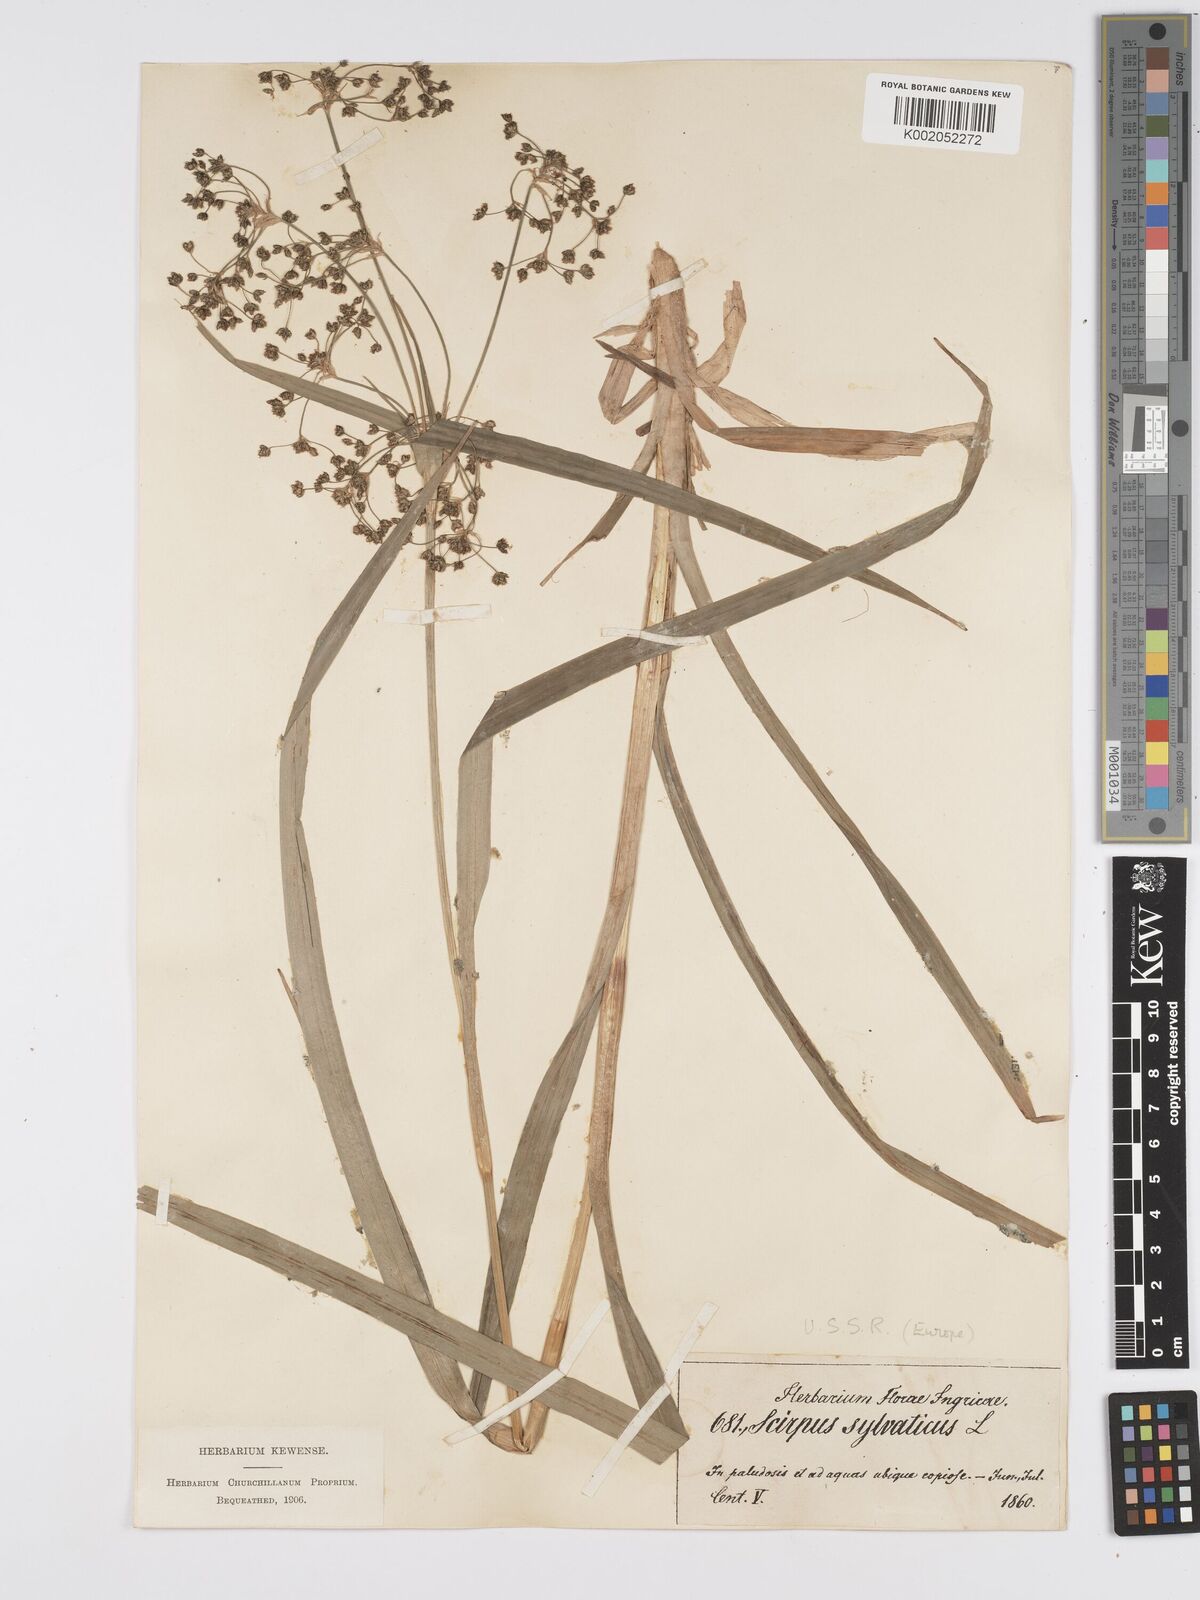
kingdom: Plantae
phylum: Tracheophyta
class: Liliopsida
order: Poales
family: Cyperaceae
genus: Scirpus
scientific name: Scirpus sylvaticus
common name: Wood club-rush
